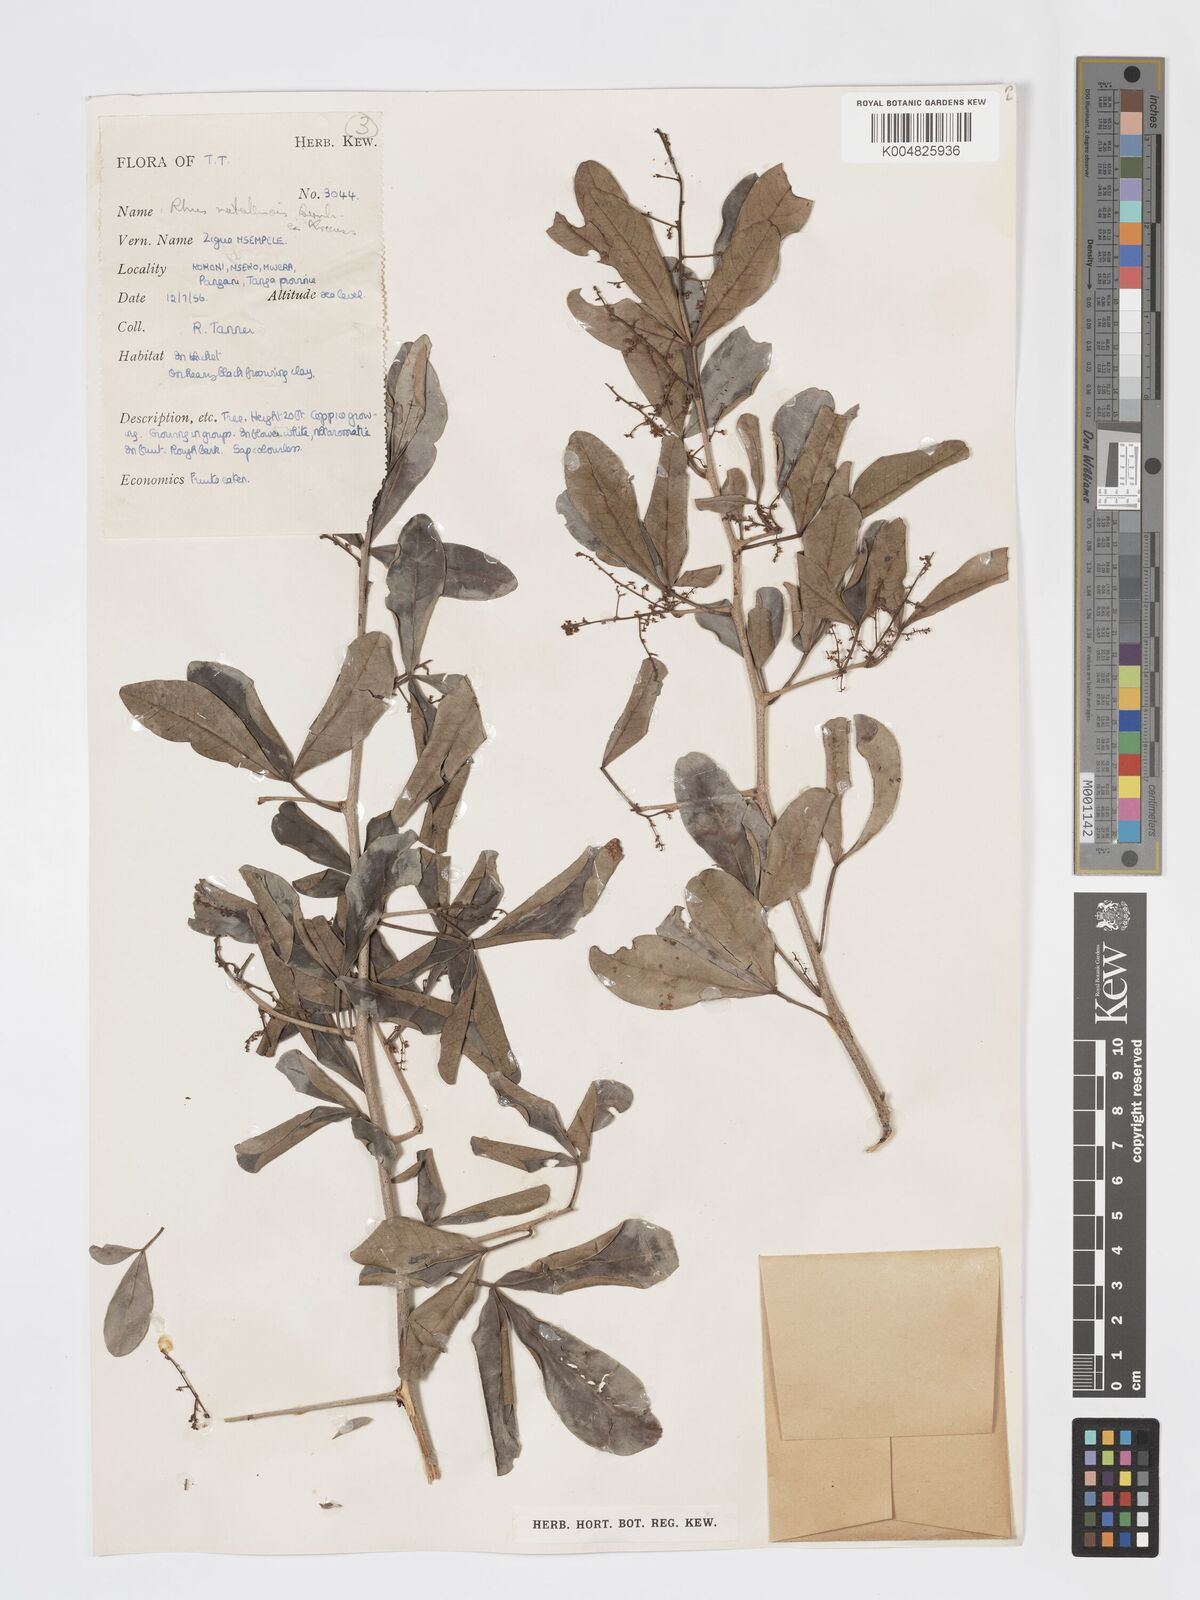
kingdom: Plantae
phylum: Tracheophyta
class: Magnoliopsida
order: Sapindales
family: Anacardiaceae
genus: Searsia
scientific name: Searsia natalensis
